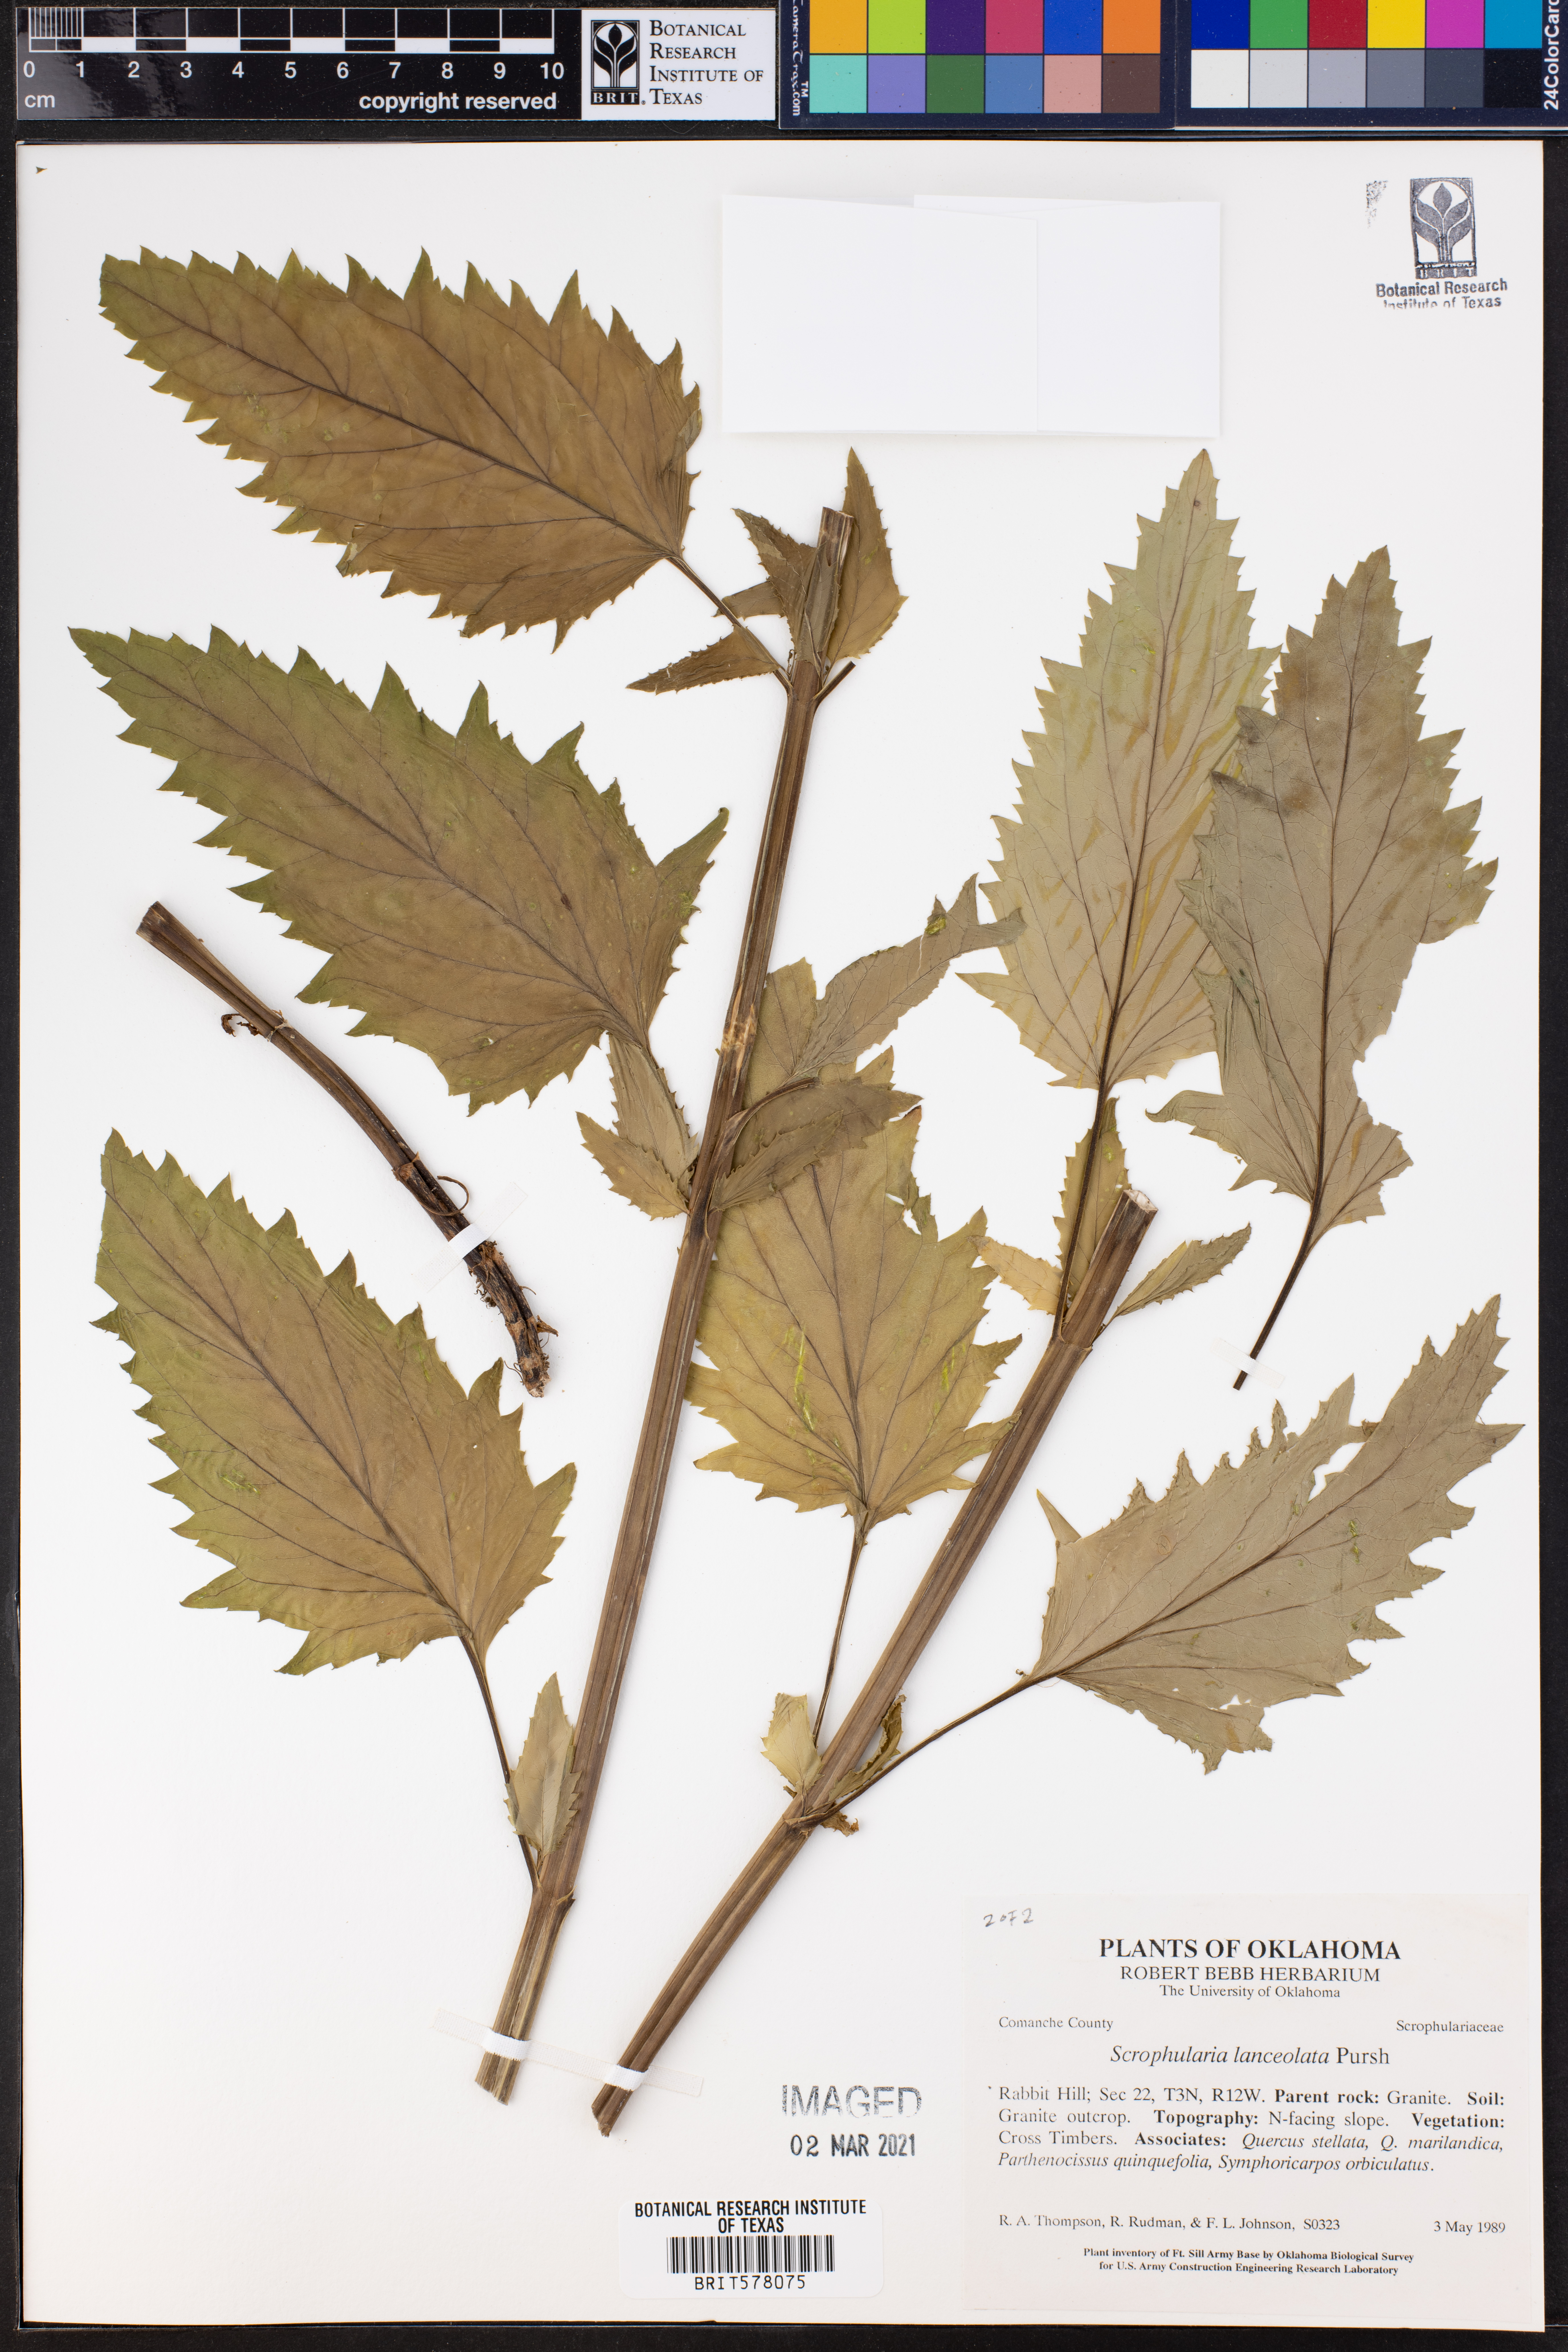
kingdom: Plantae
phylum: Tracheophyta
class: Magnoliopsida
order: Lamiales
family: Scrophulariaceae
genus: Scrophularia
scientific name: Scrophularia lanceolata
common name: American figwort
